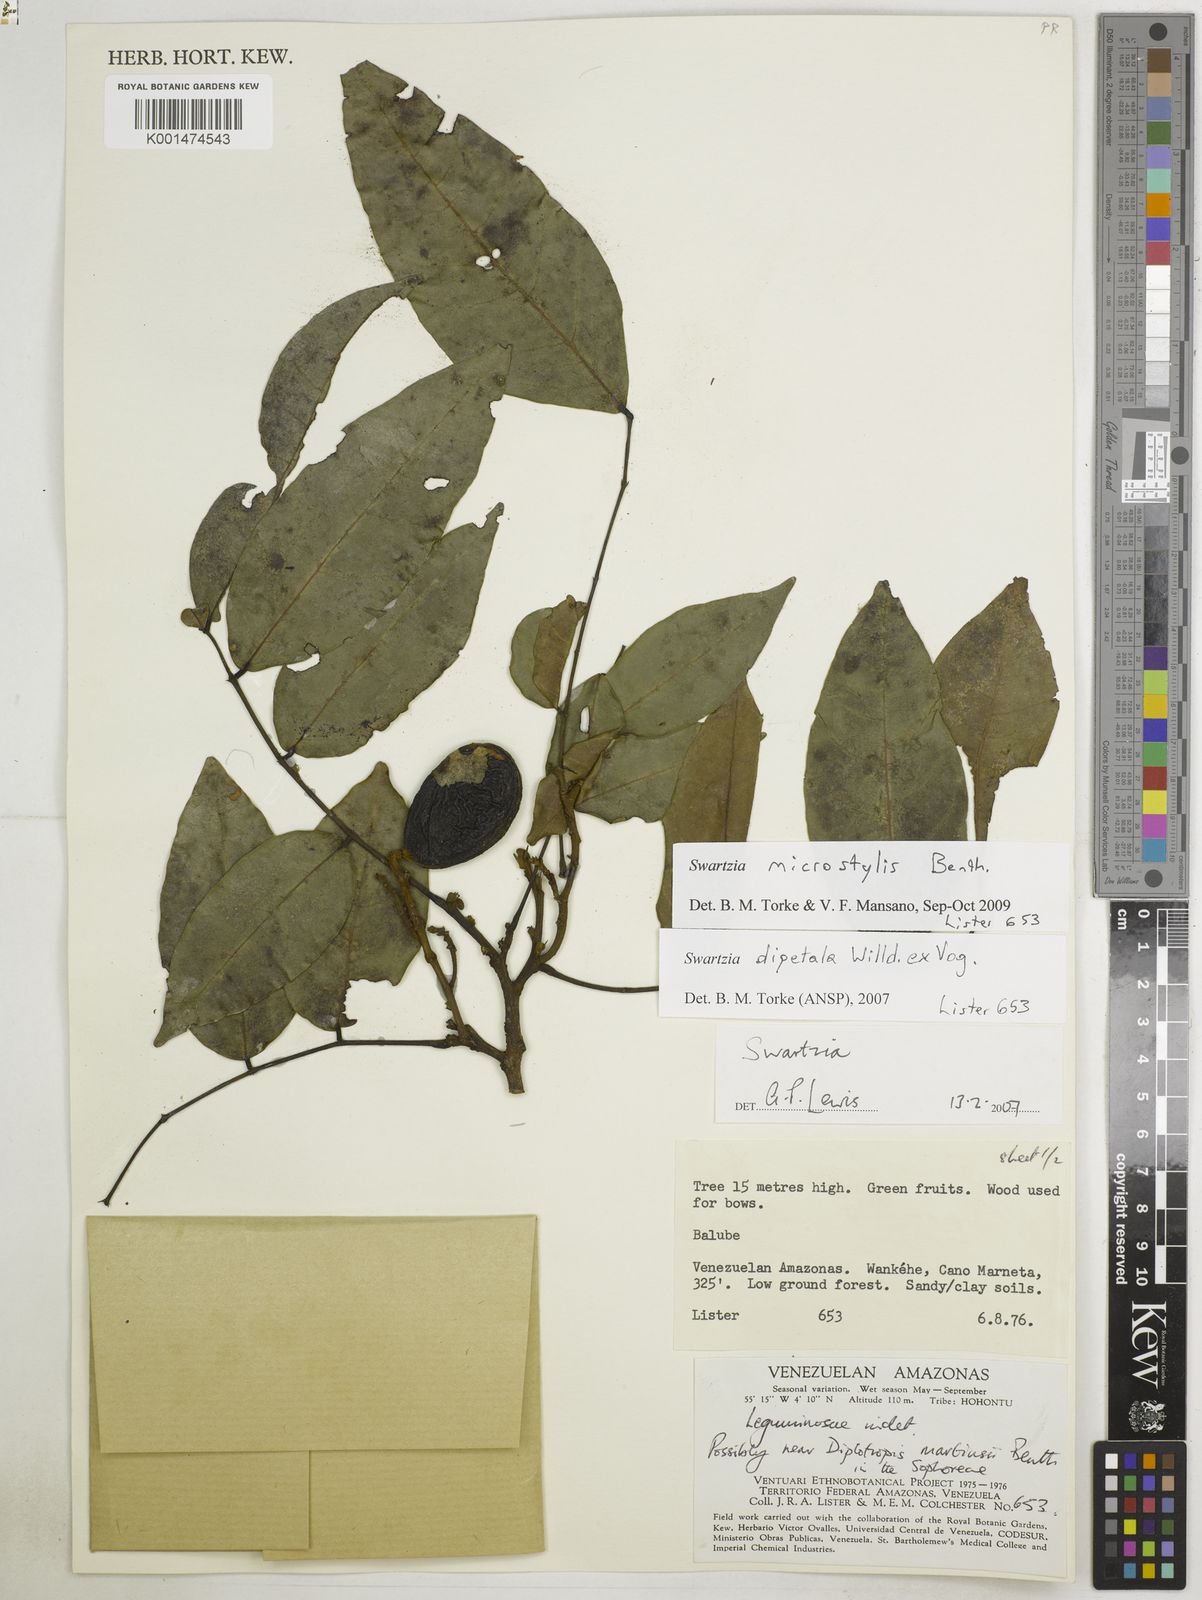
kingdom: Plantae
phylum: Tracheophyta
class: Magnoliopsida
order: Fabales
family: Fabaceae
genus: Swartzia
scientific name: Swartzia microstylis
